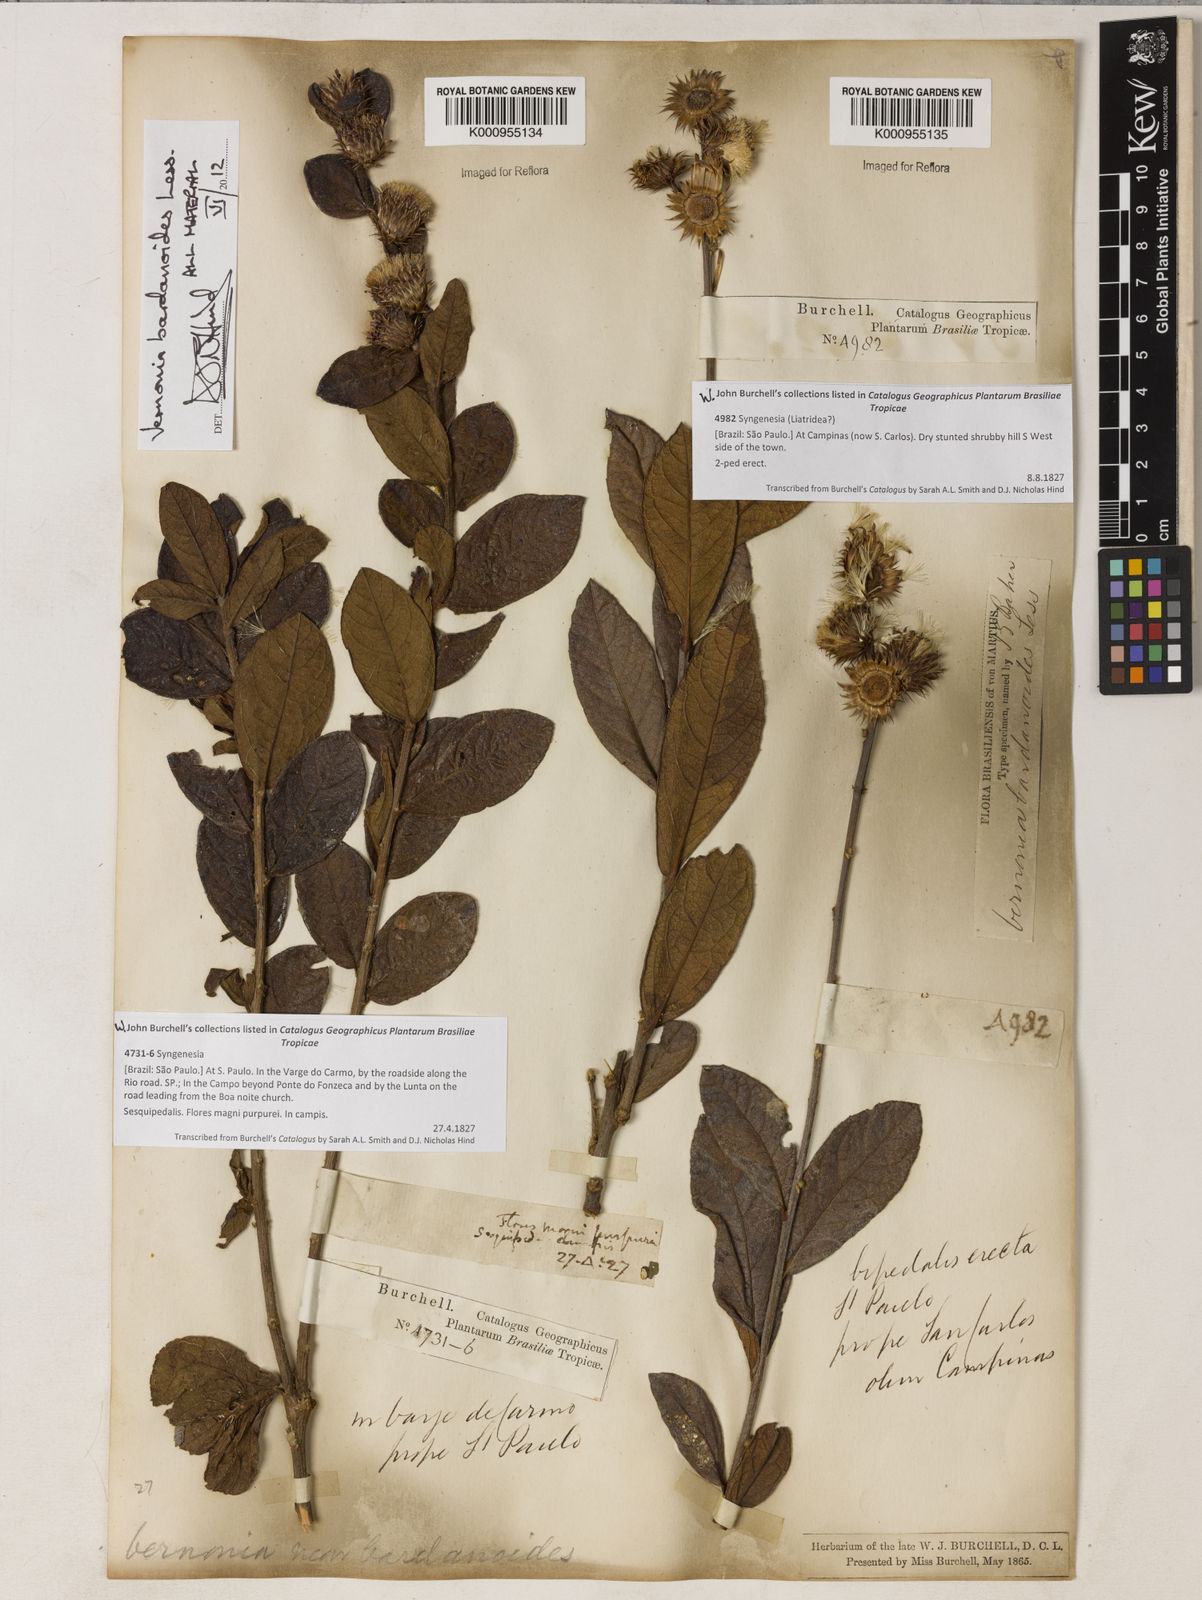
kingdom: Plantae
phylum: Tracheophyta
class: Magnoliopsida
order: Asterales
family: Asteraceae
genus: Lessingianthus
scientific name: Lessingianthus bardanioides
